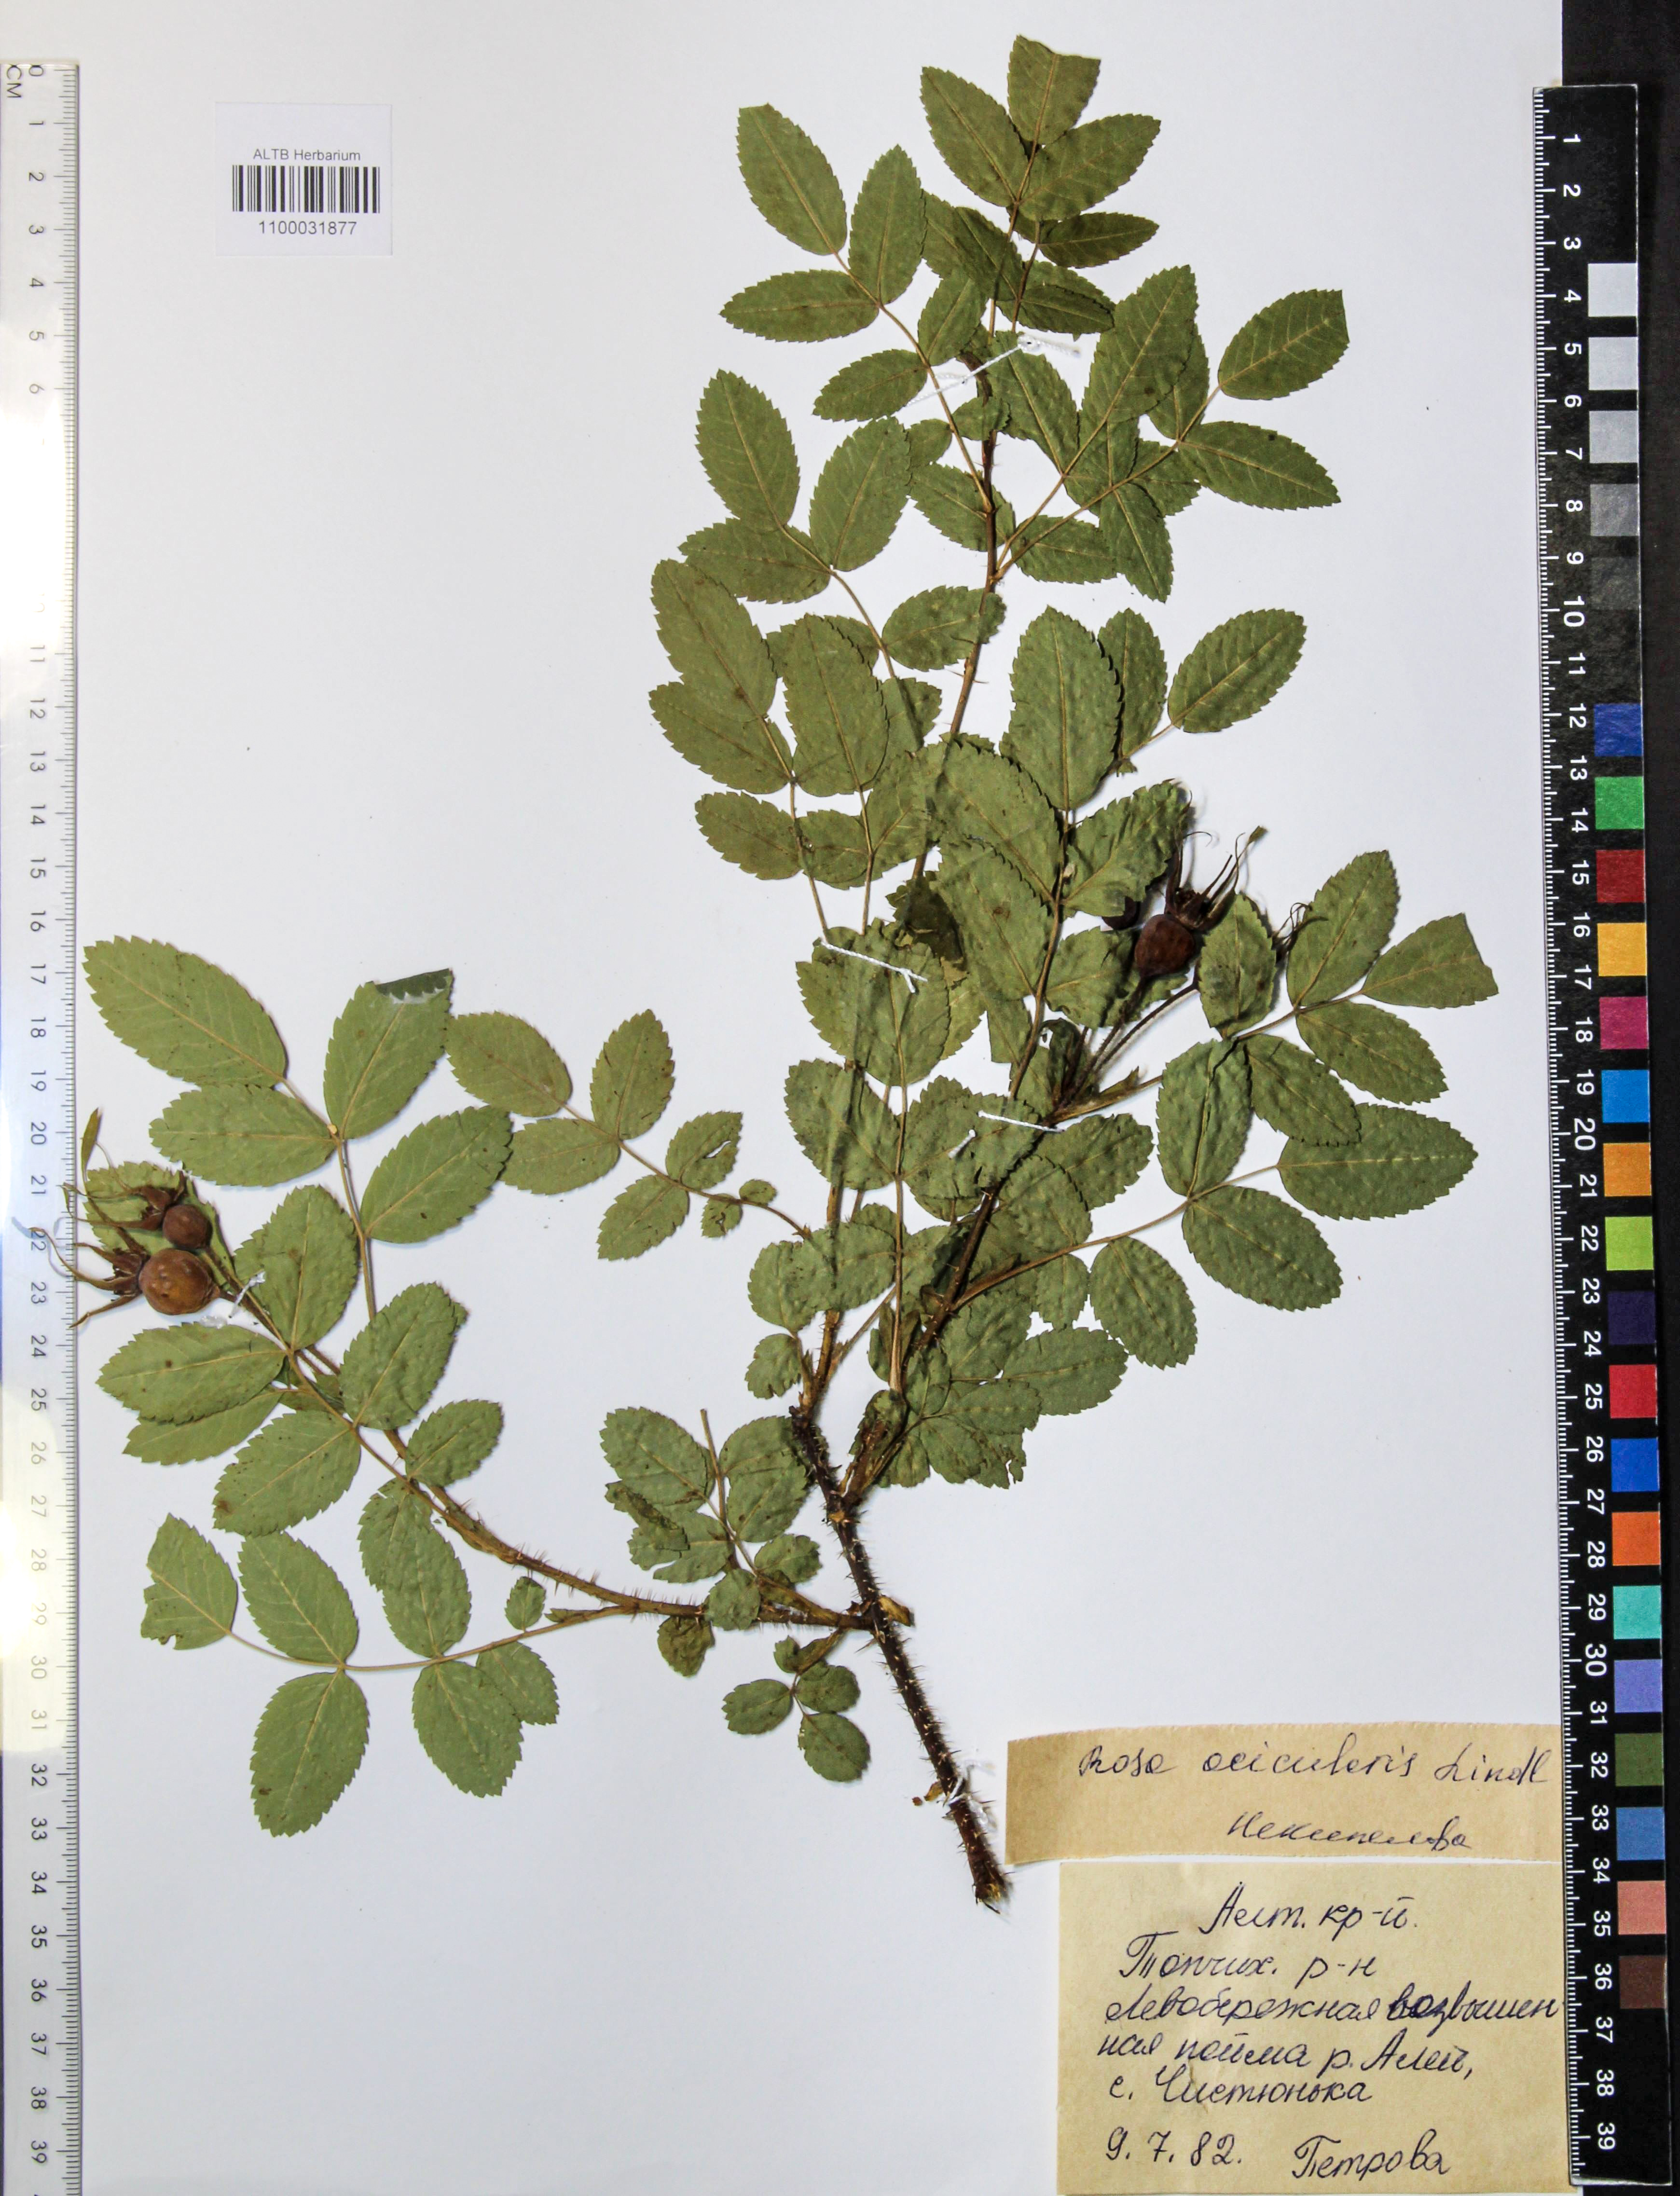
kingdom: Plantae
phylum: Tracheophyta
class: Magnoliopsida
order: Rosales
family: Rosaceae
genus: Rosa
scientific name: Rosa acicularis
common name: Prickly rose
